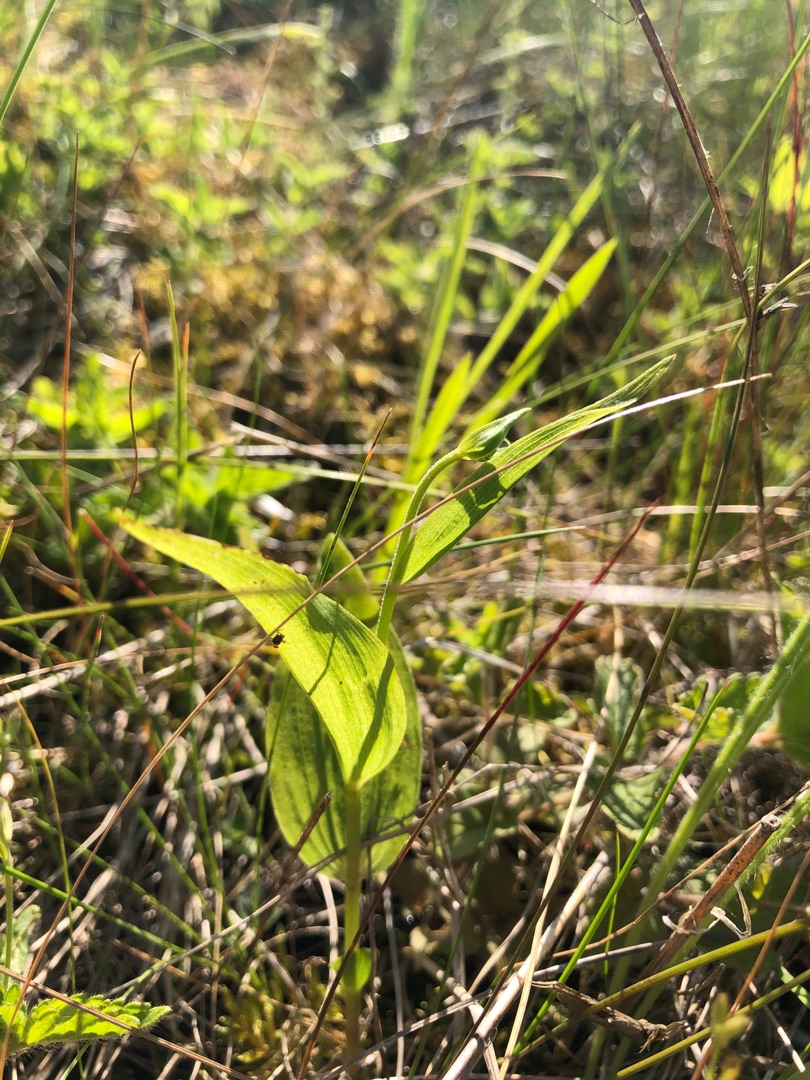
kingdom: Plantae
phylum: Tracheophyta
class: Liliopsida
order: Asparagales
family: Orchidaceae
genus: Epipactis
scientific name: Epipactis helleborine
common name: Skov-hullæbe
